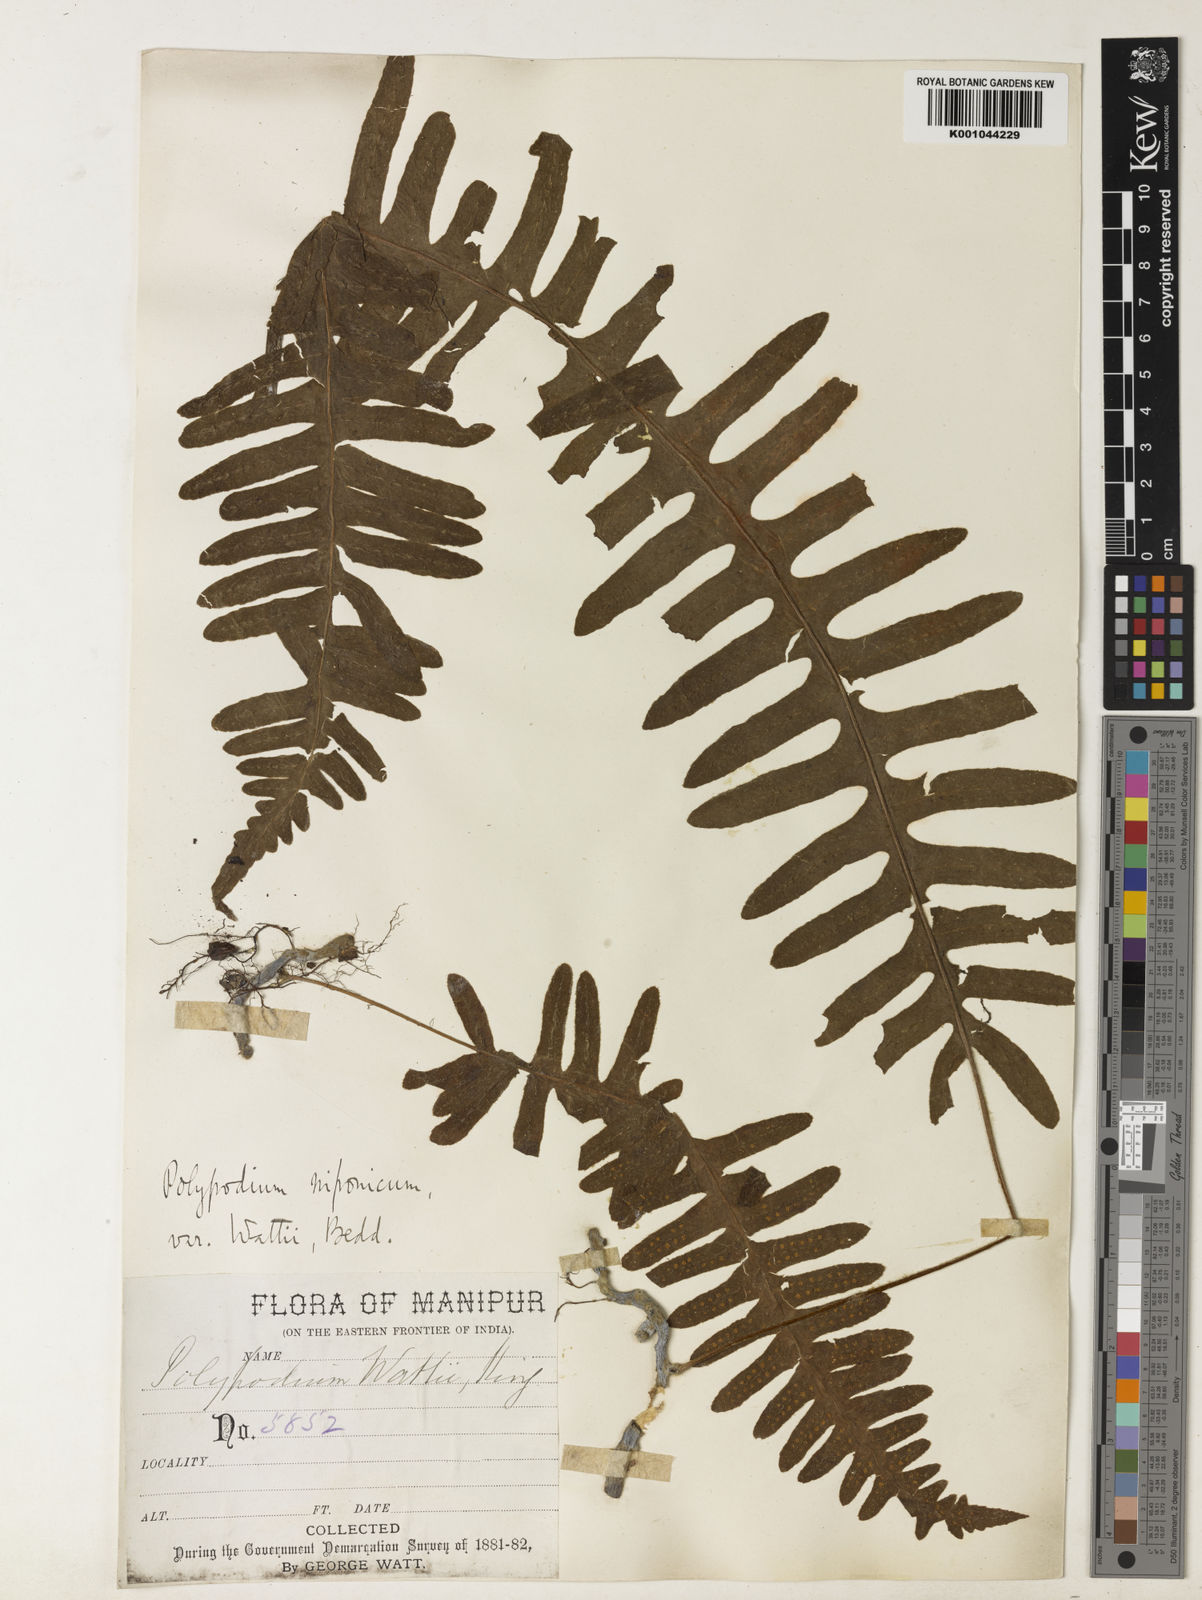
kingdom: Plantae
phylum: Tracheophyta
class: Polypodiopsida
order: Polypodiales
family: Polypodiaceae
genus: Goniophlebium
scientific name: Goniophlebium wattii
